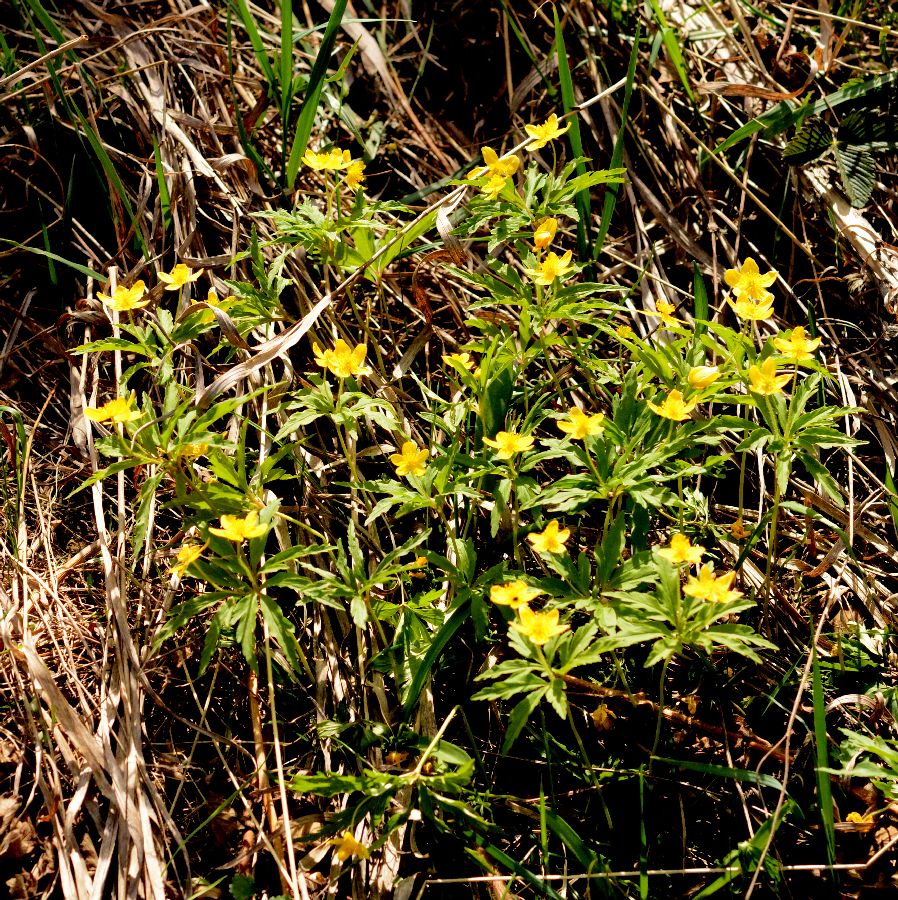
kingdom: Plantae
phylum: Tracheophyta
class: Magnoliopsida
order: Ranunculales
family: Ranunculaceae
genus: Anemone
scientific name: Anemone ranunculoides
